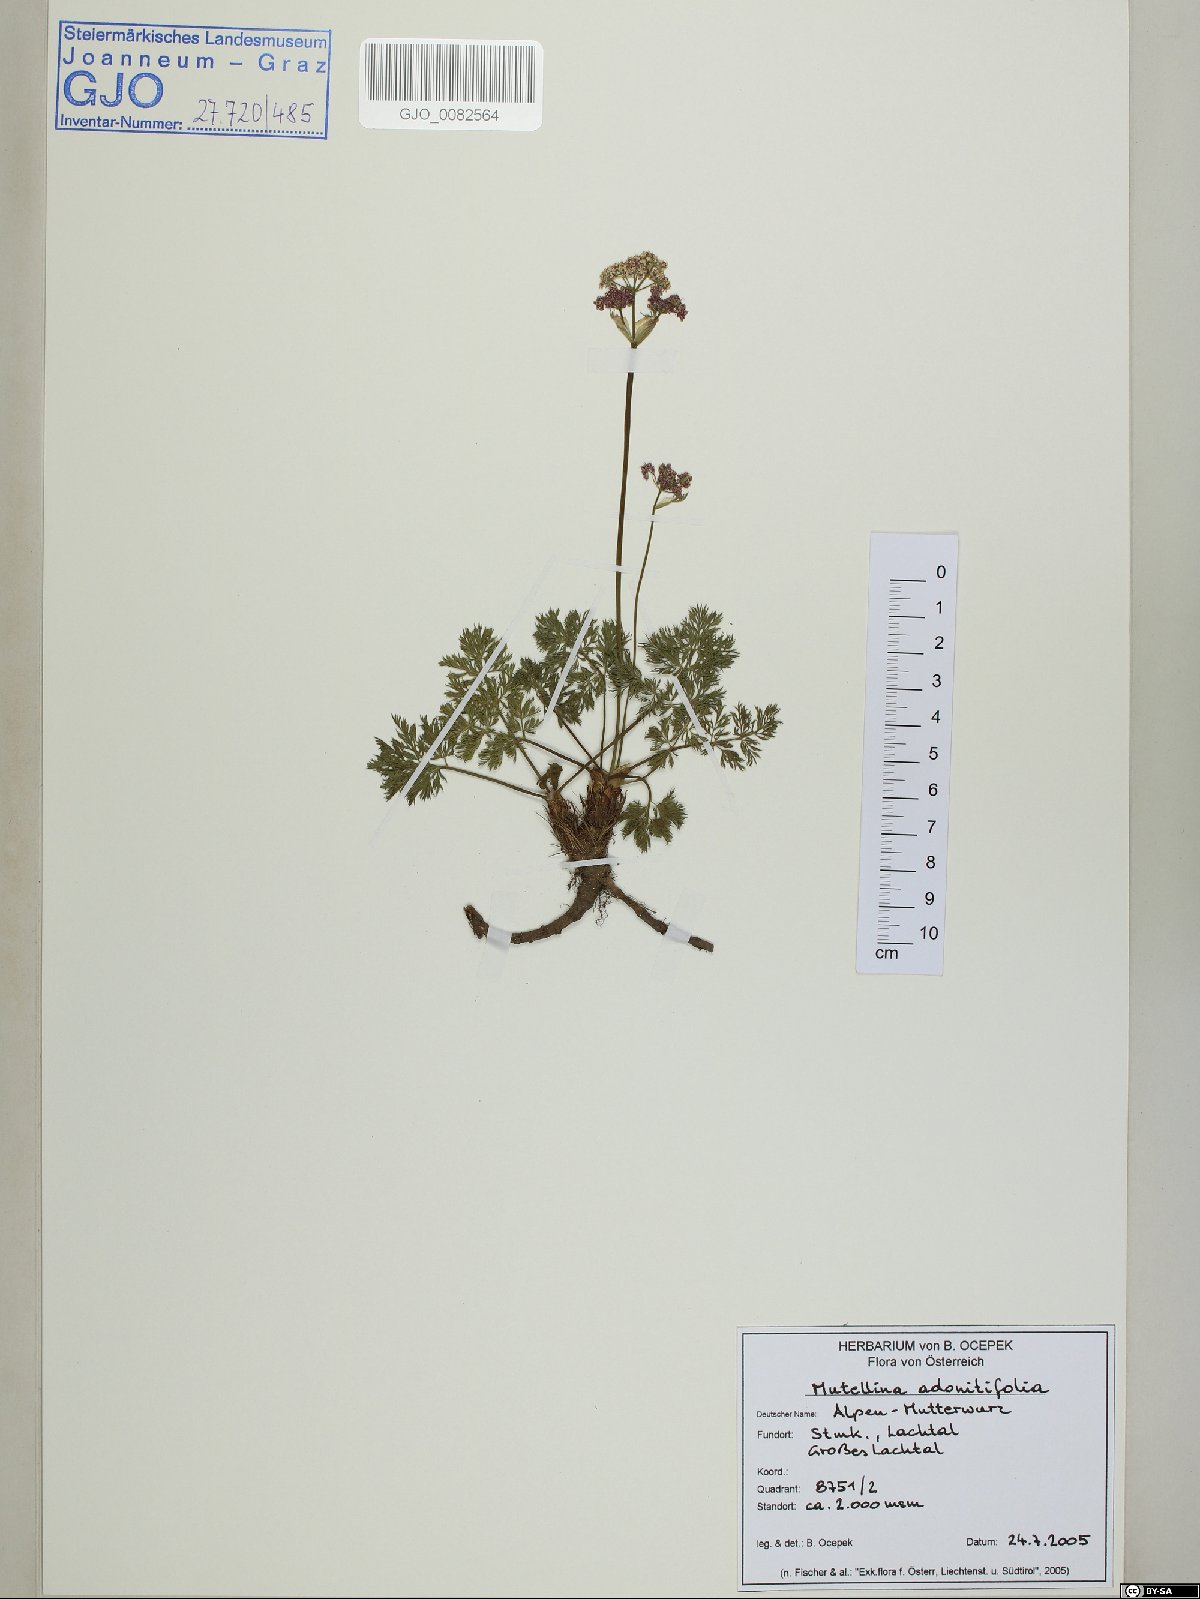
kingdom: Plantae
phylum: Tracheophyta
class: Magnoliopsida
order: Apiales
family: Apiaceae
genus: Mutellina
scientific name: Mutellina adonidifolia
